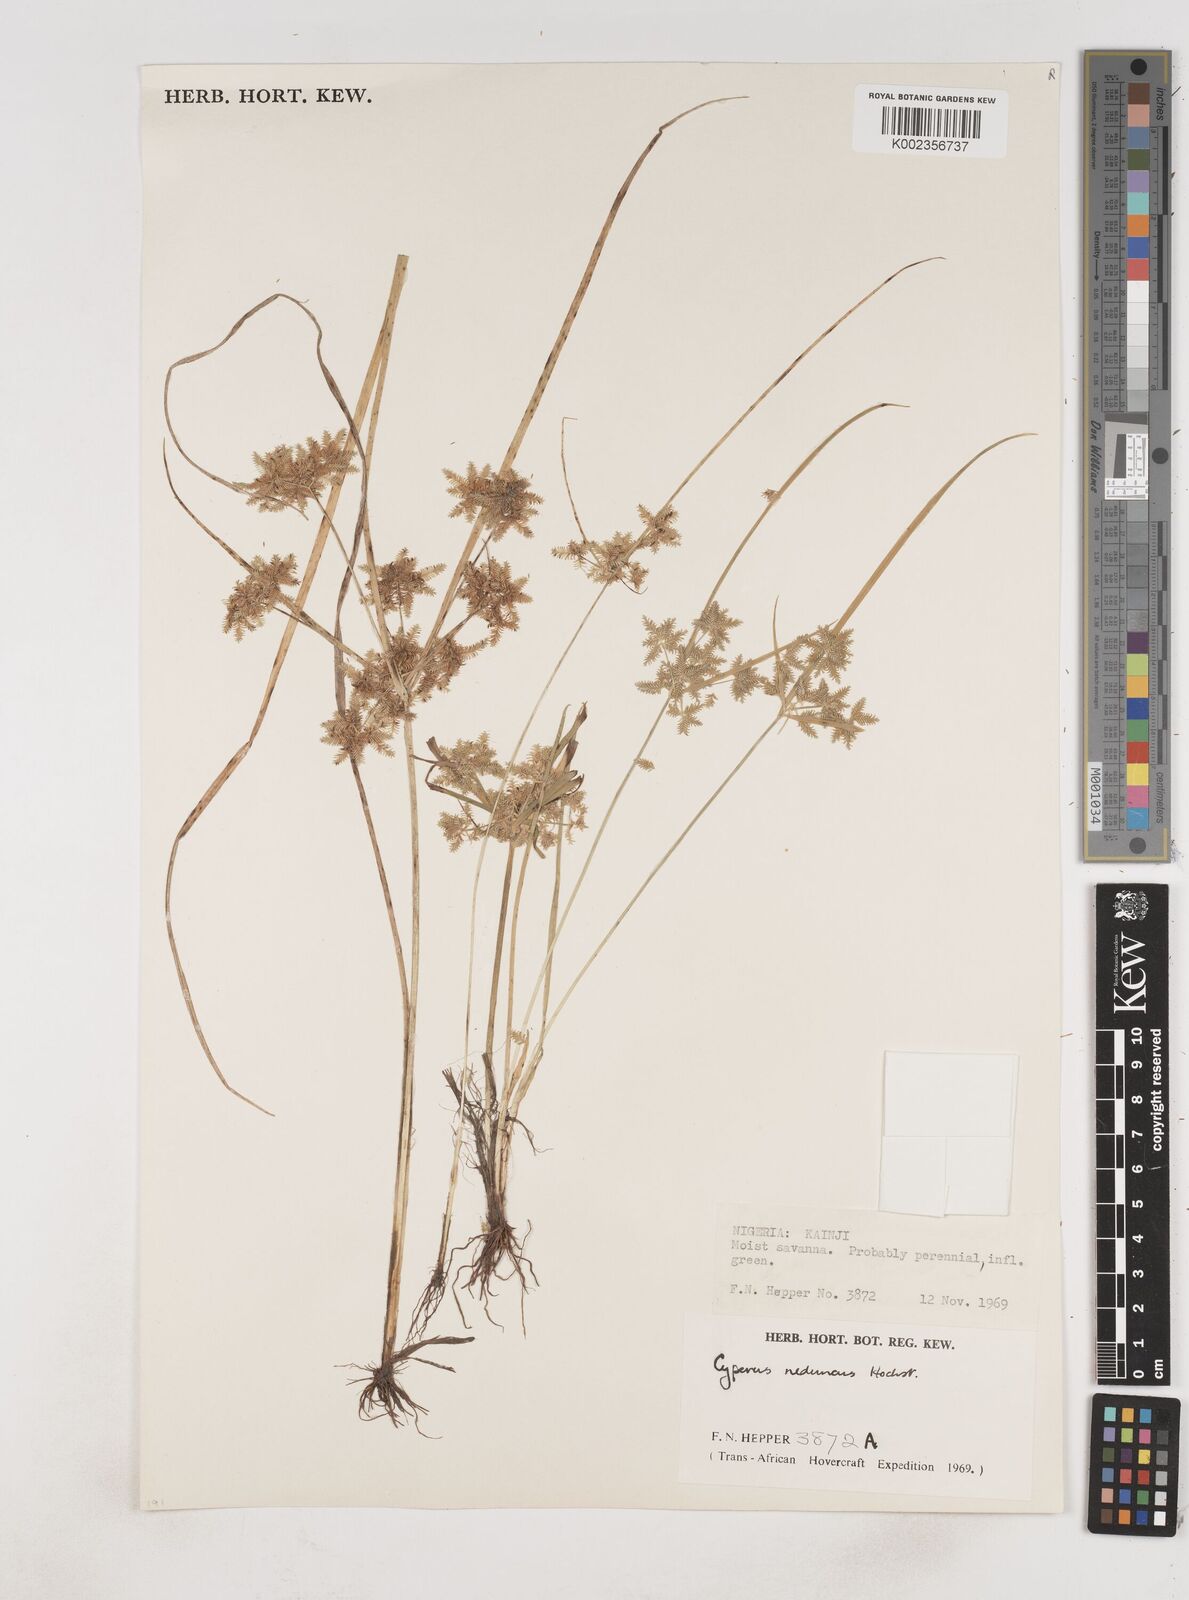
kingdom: Plantae
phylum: Tracheophyta
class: Liliopsida
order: Poales
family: Cyperaceae
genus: Cyperus
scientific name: Cyperus reduncus
